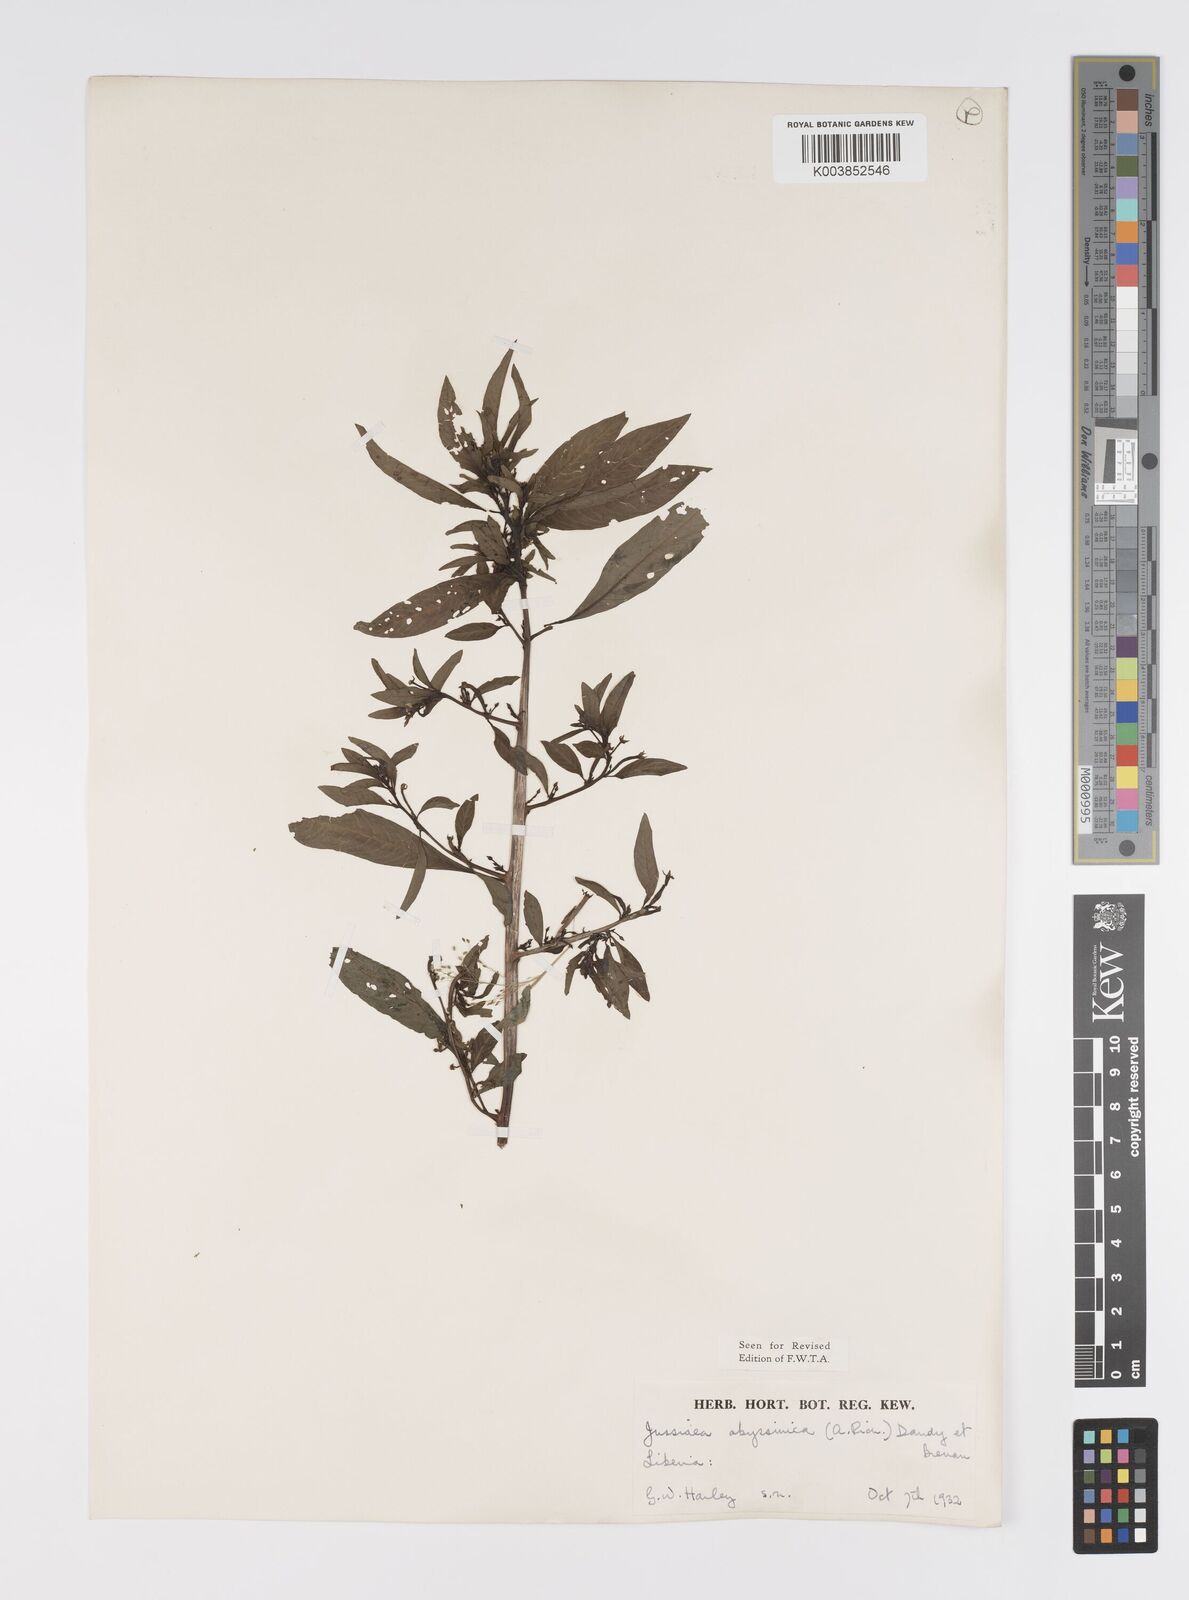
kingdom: Plantae
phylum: Tracheophyta
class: Magnoliopsida
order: Myrtales
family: Onagraceae
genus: Ludwigia
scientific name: Ludwigia abyssinica
